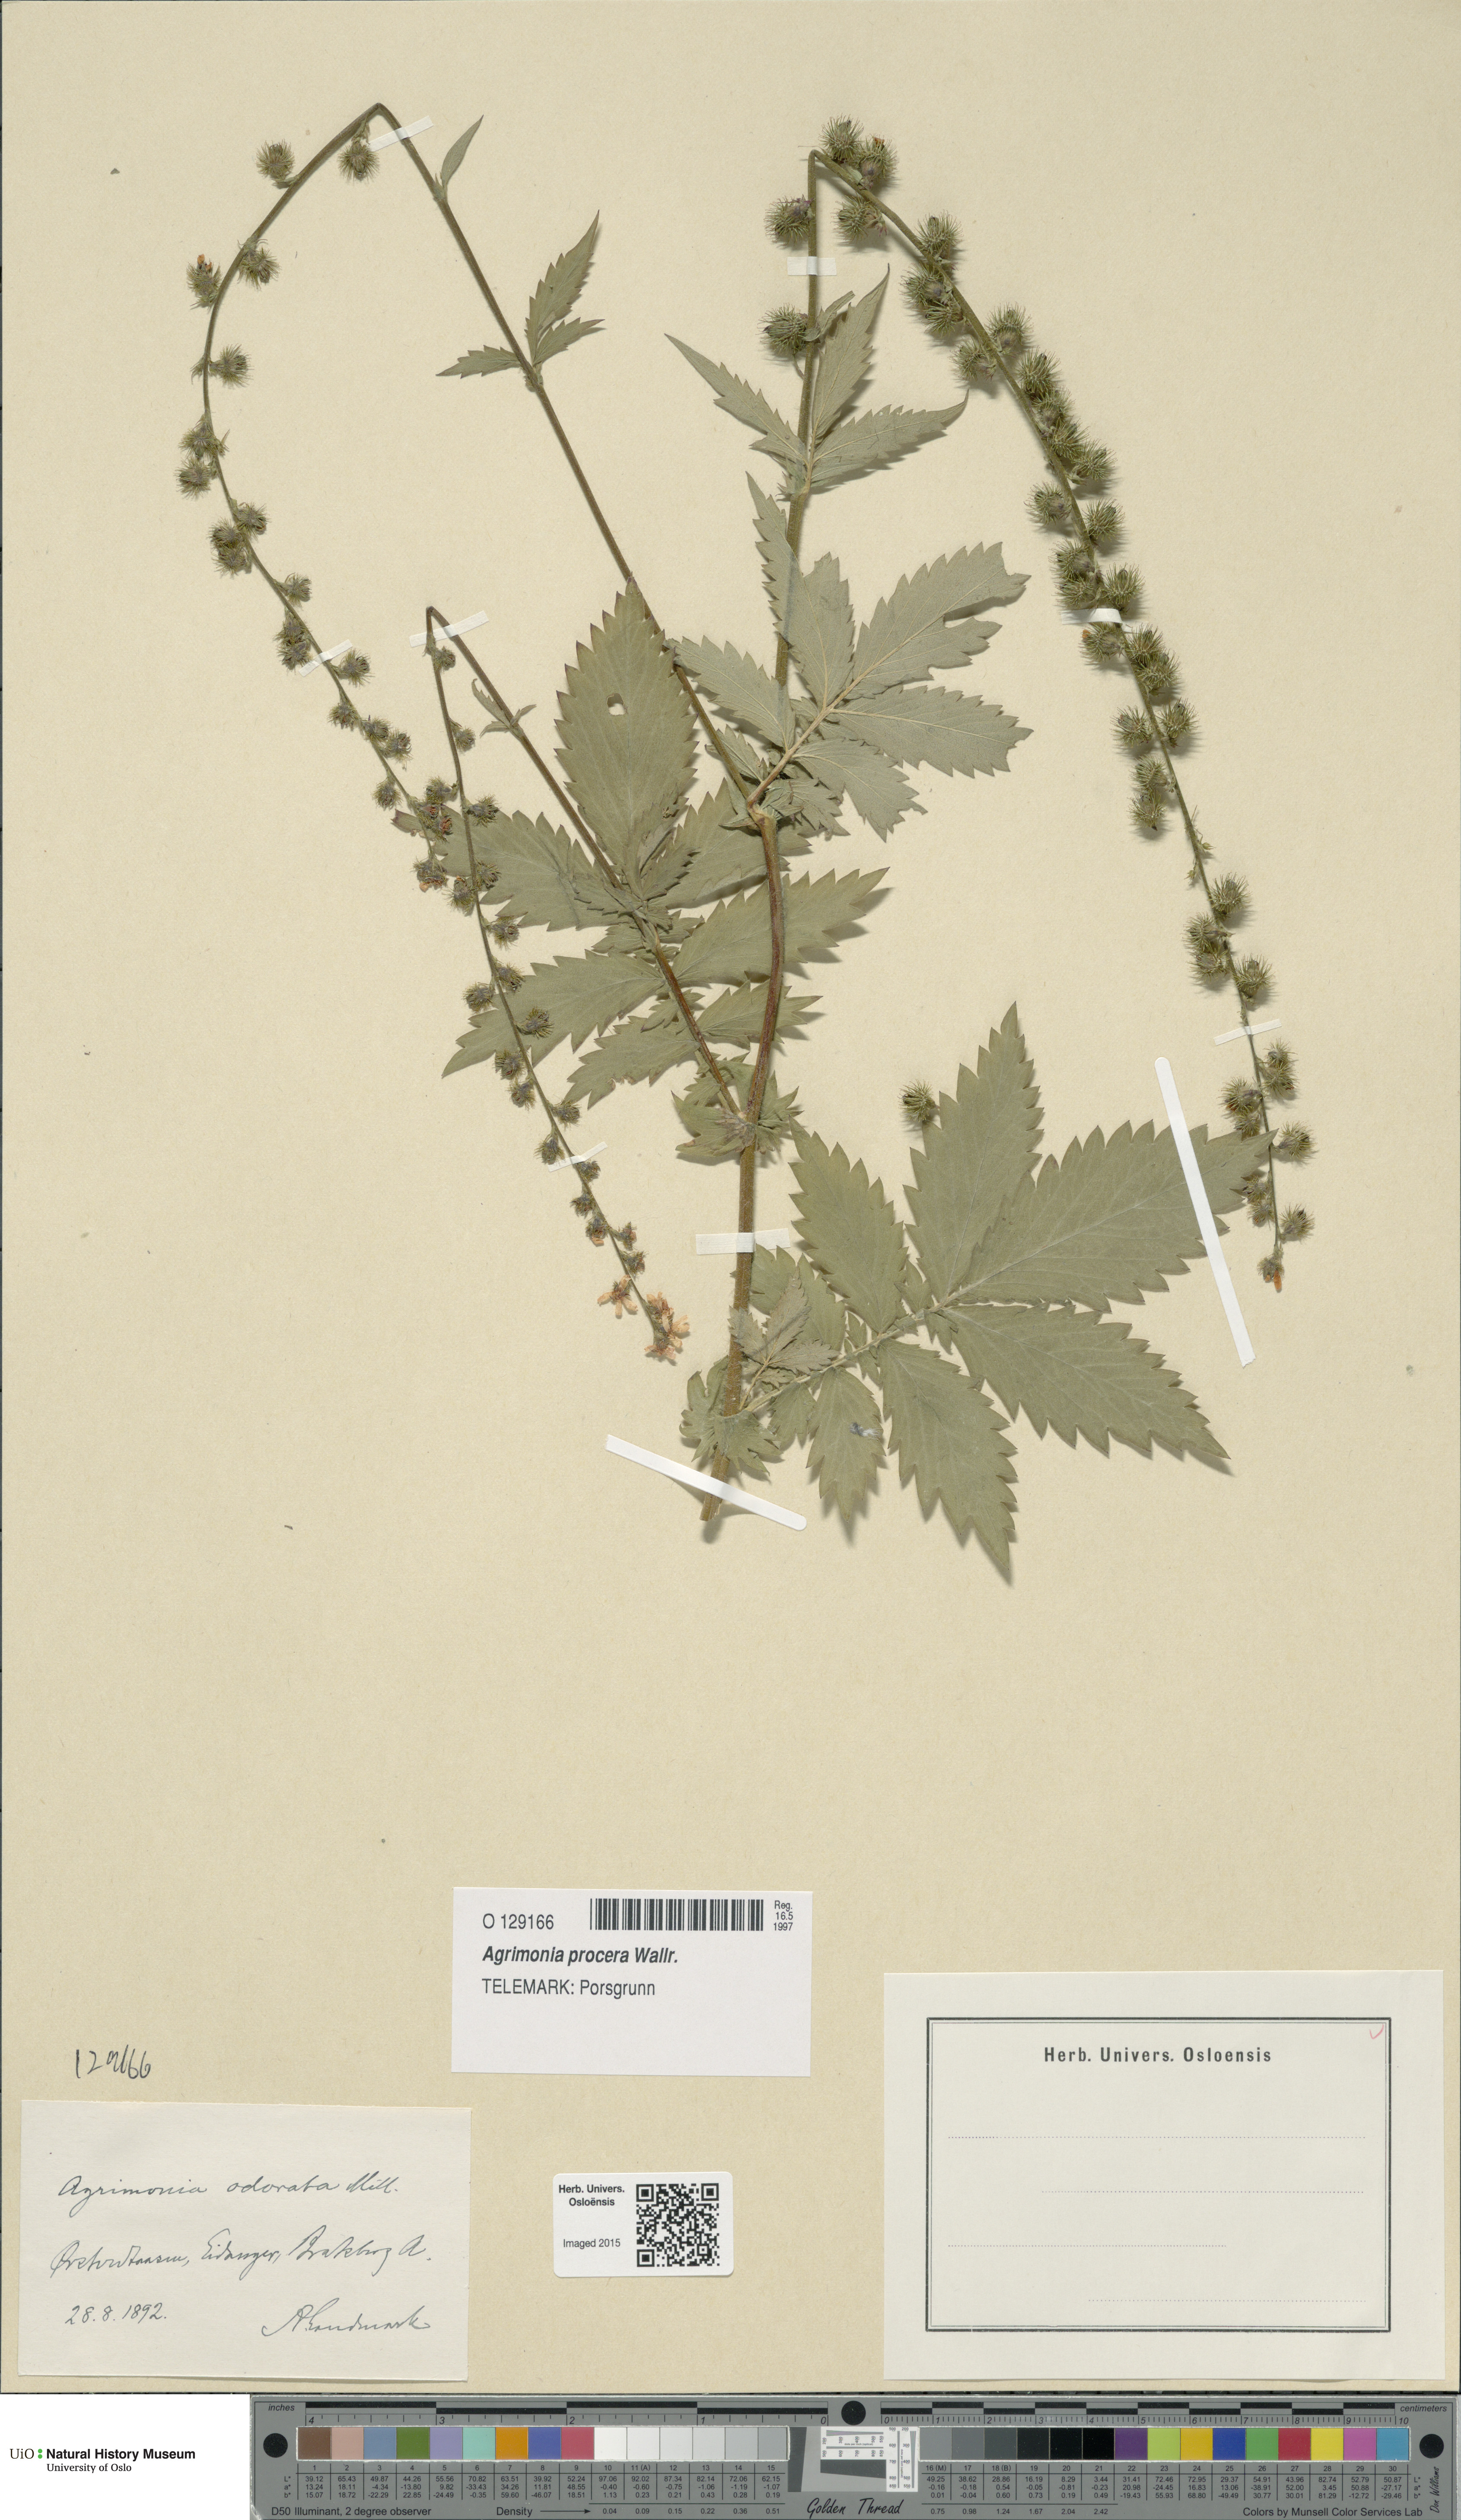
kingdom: Plantae
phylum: Tracheophyta
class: Magnoliopsida
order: Rosales
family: Rosaceae
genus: Agrimonia
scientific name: Agrimonia procera
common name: Fragrant agrimony
